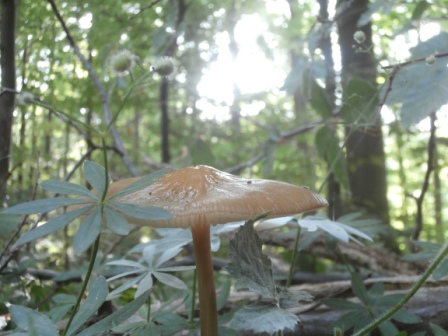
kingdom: Fungi
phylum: Basidiomycota
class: Agaricomycetes
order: Agaricales
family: Physalacriaceae
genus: Hymenopellis
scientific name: Hymenopellis radicata
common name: almindelig pælerodshat
